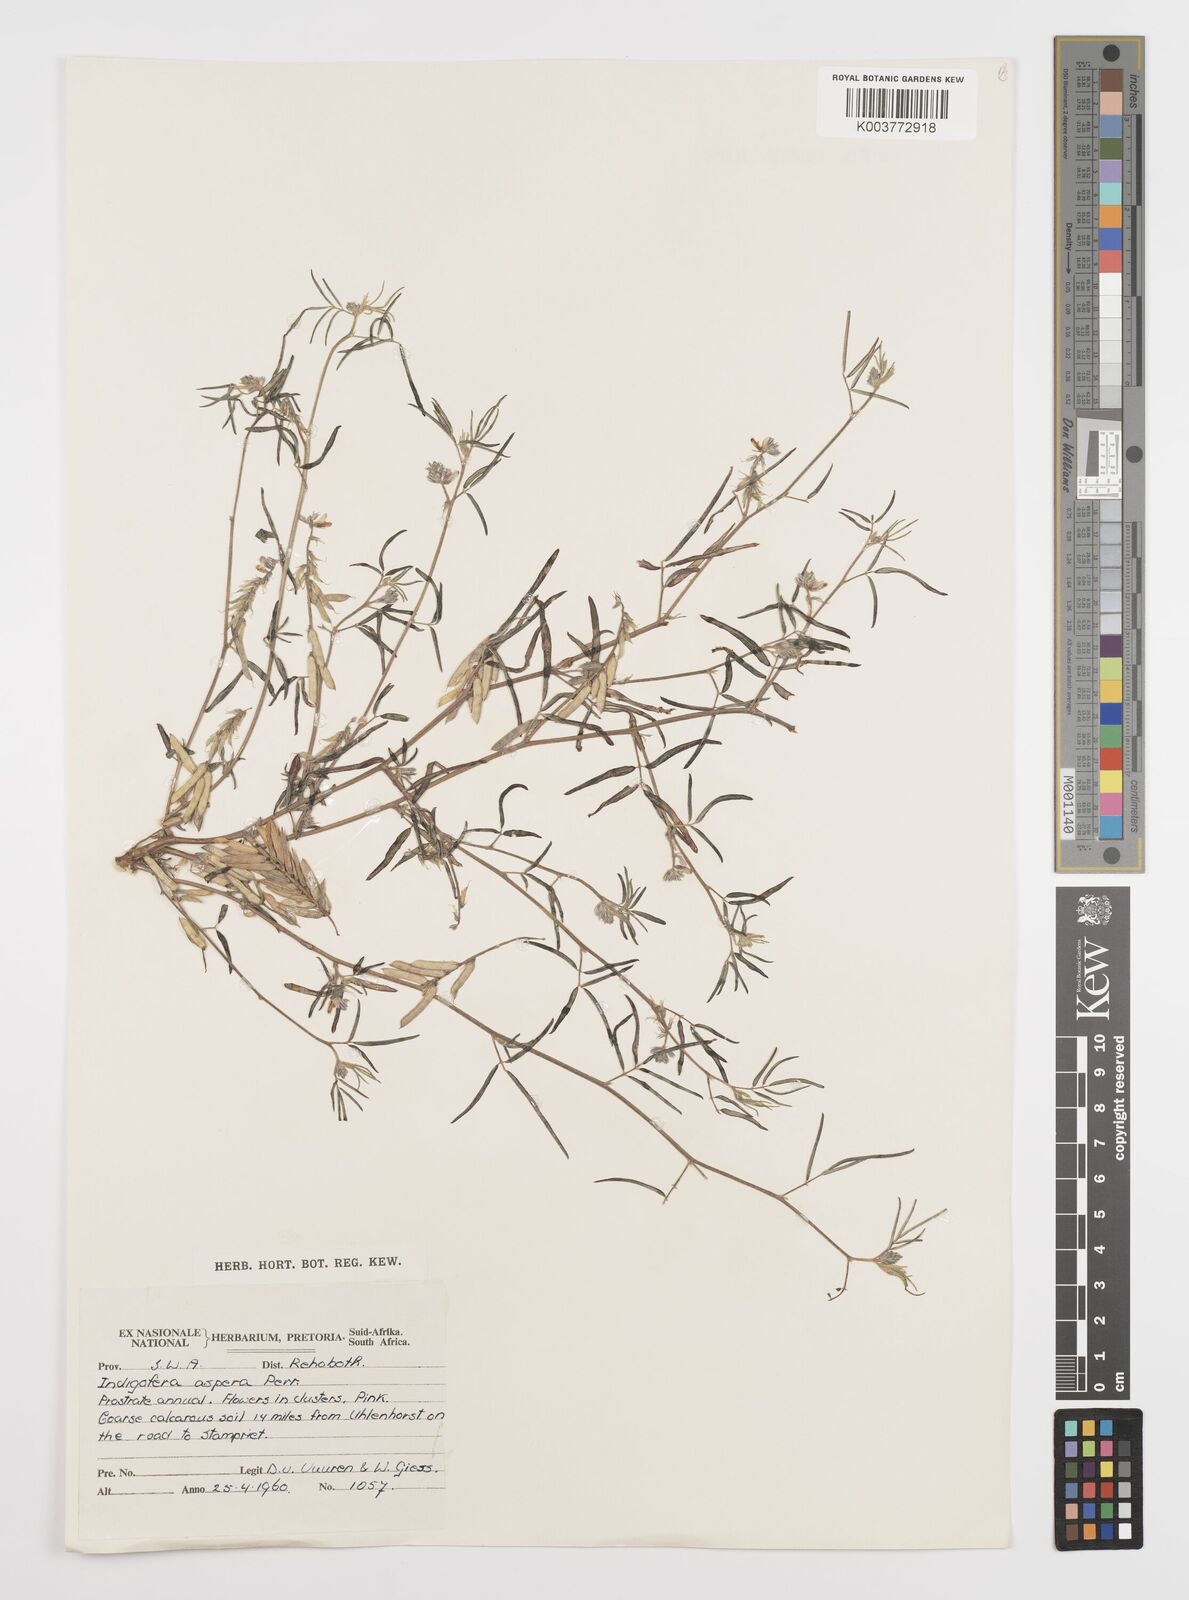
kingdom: Plantae
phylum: Tracheophyta
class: Magnoliopsida
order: Fabales
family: Fabaceae
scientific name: Fabaceae
